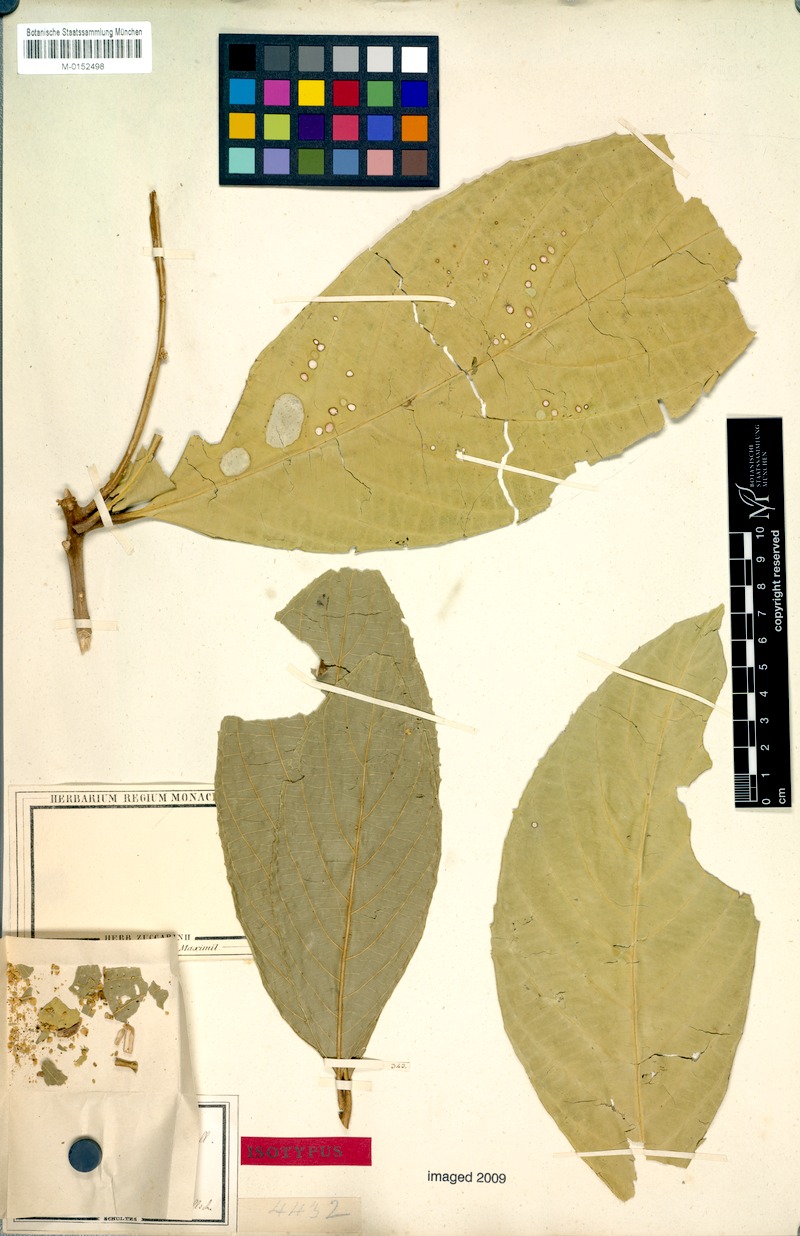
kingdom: Plantae
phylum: Tracheophyta
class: Magnoliopsida
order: Ericales
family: Symplocaceae
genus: Symplocos
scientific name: Symplocos rubiginosa
